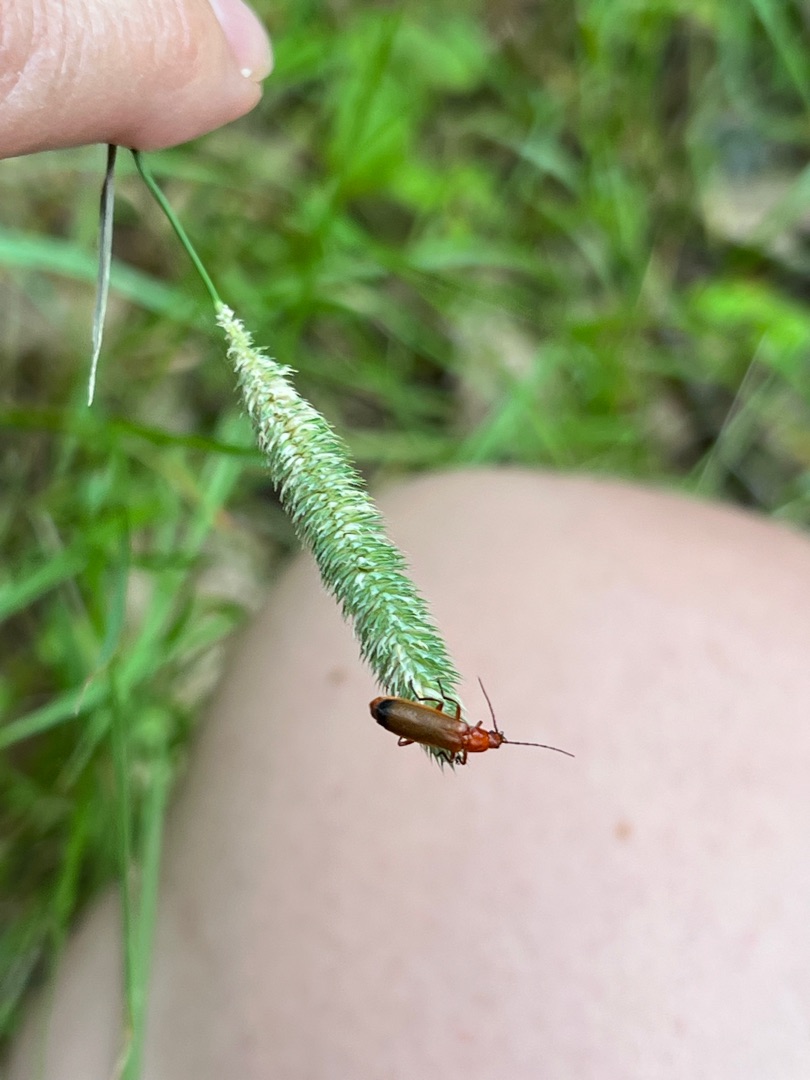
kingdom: Animalia
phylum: Arthropoda
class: Insecta
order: Coleoptera
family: Cantharidae
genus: Rhagonycha
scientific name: Rhagonycha fulva
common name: Præstebille
